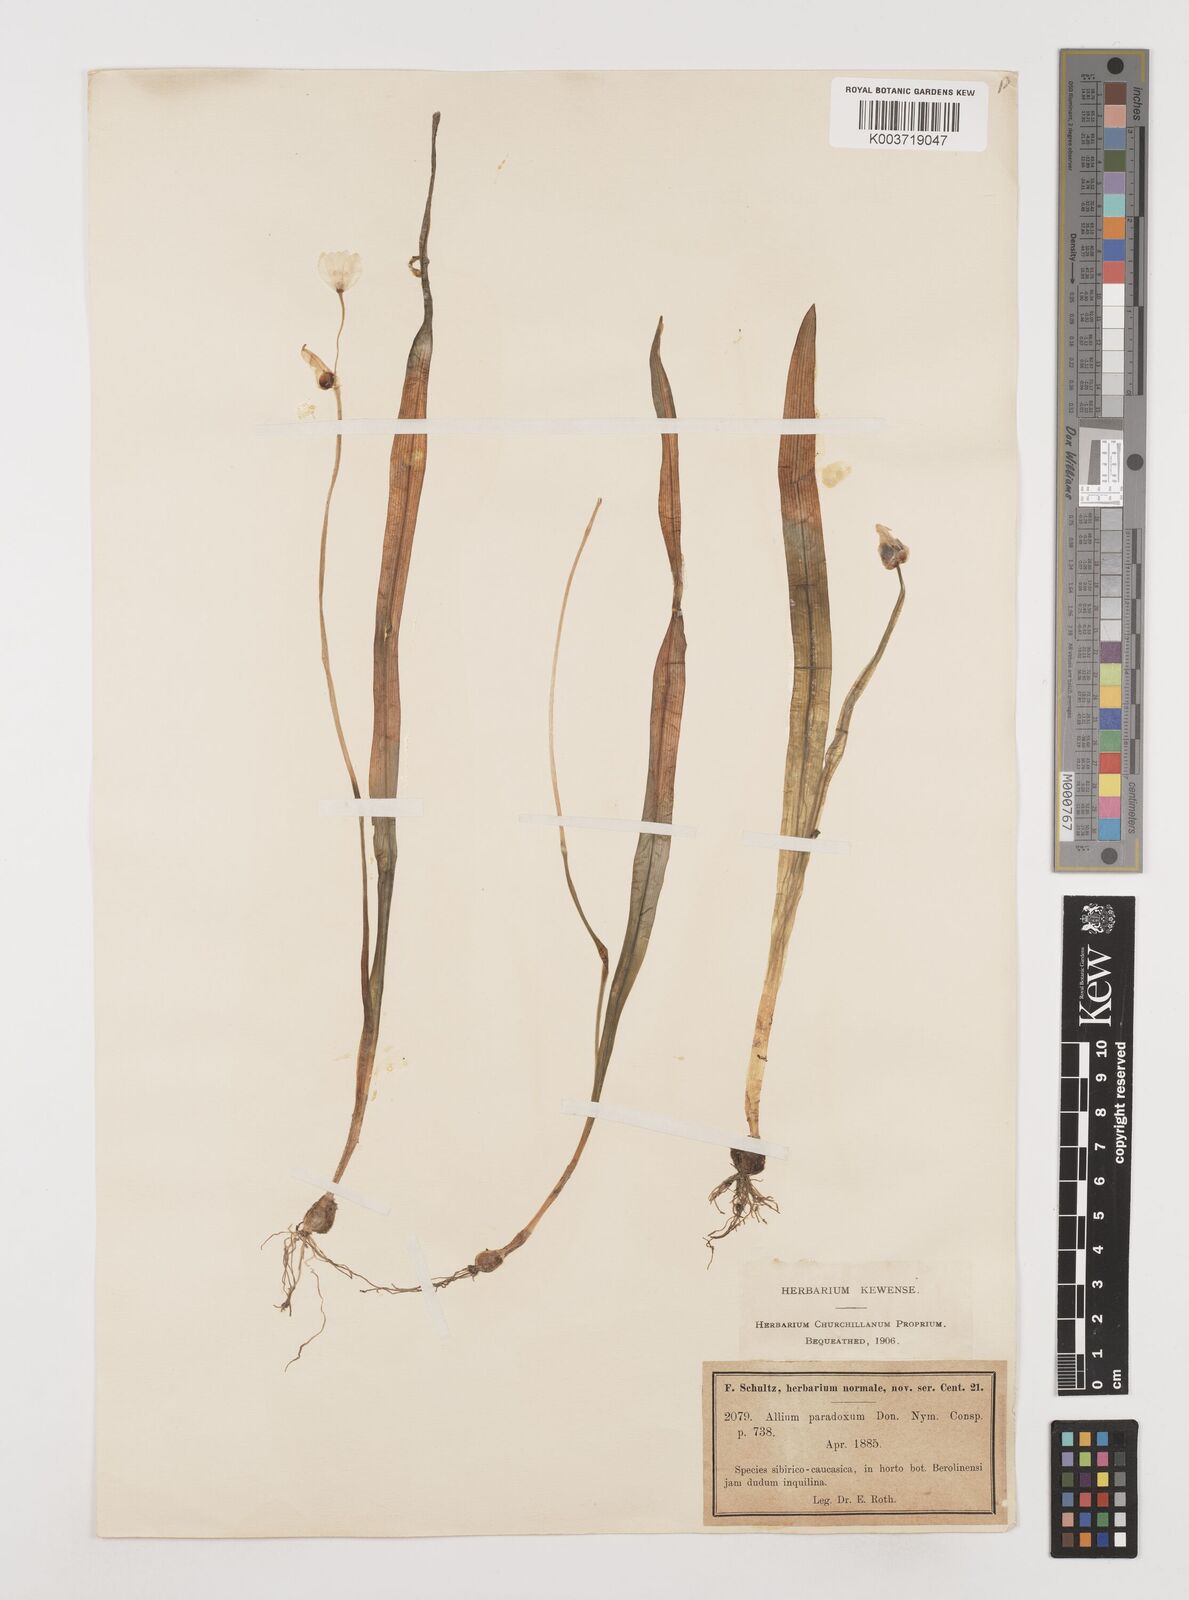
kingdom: Plantae
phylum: Tracheophyta
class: Liliopsida
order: Asparagales
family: Amaryllidaceae
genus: Allium
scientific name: Allium paradoxum
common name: Few-flowered garlic
